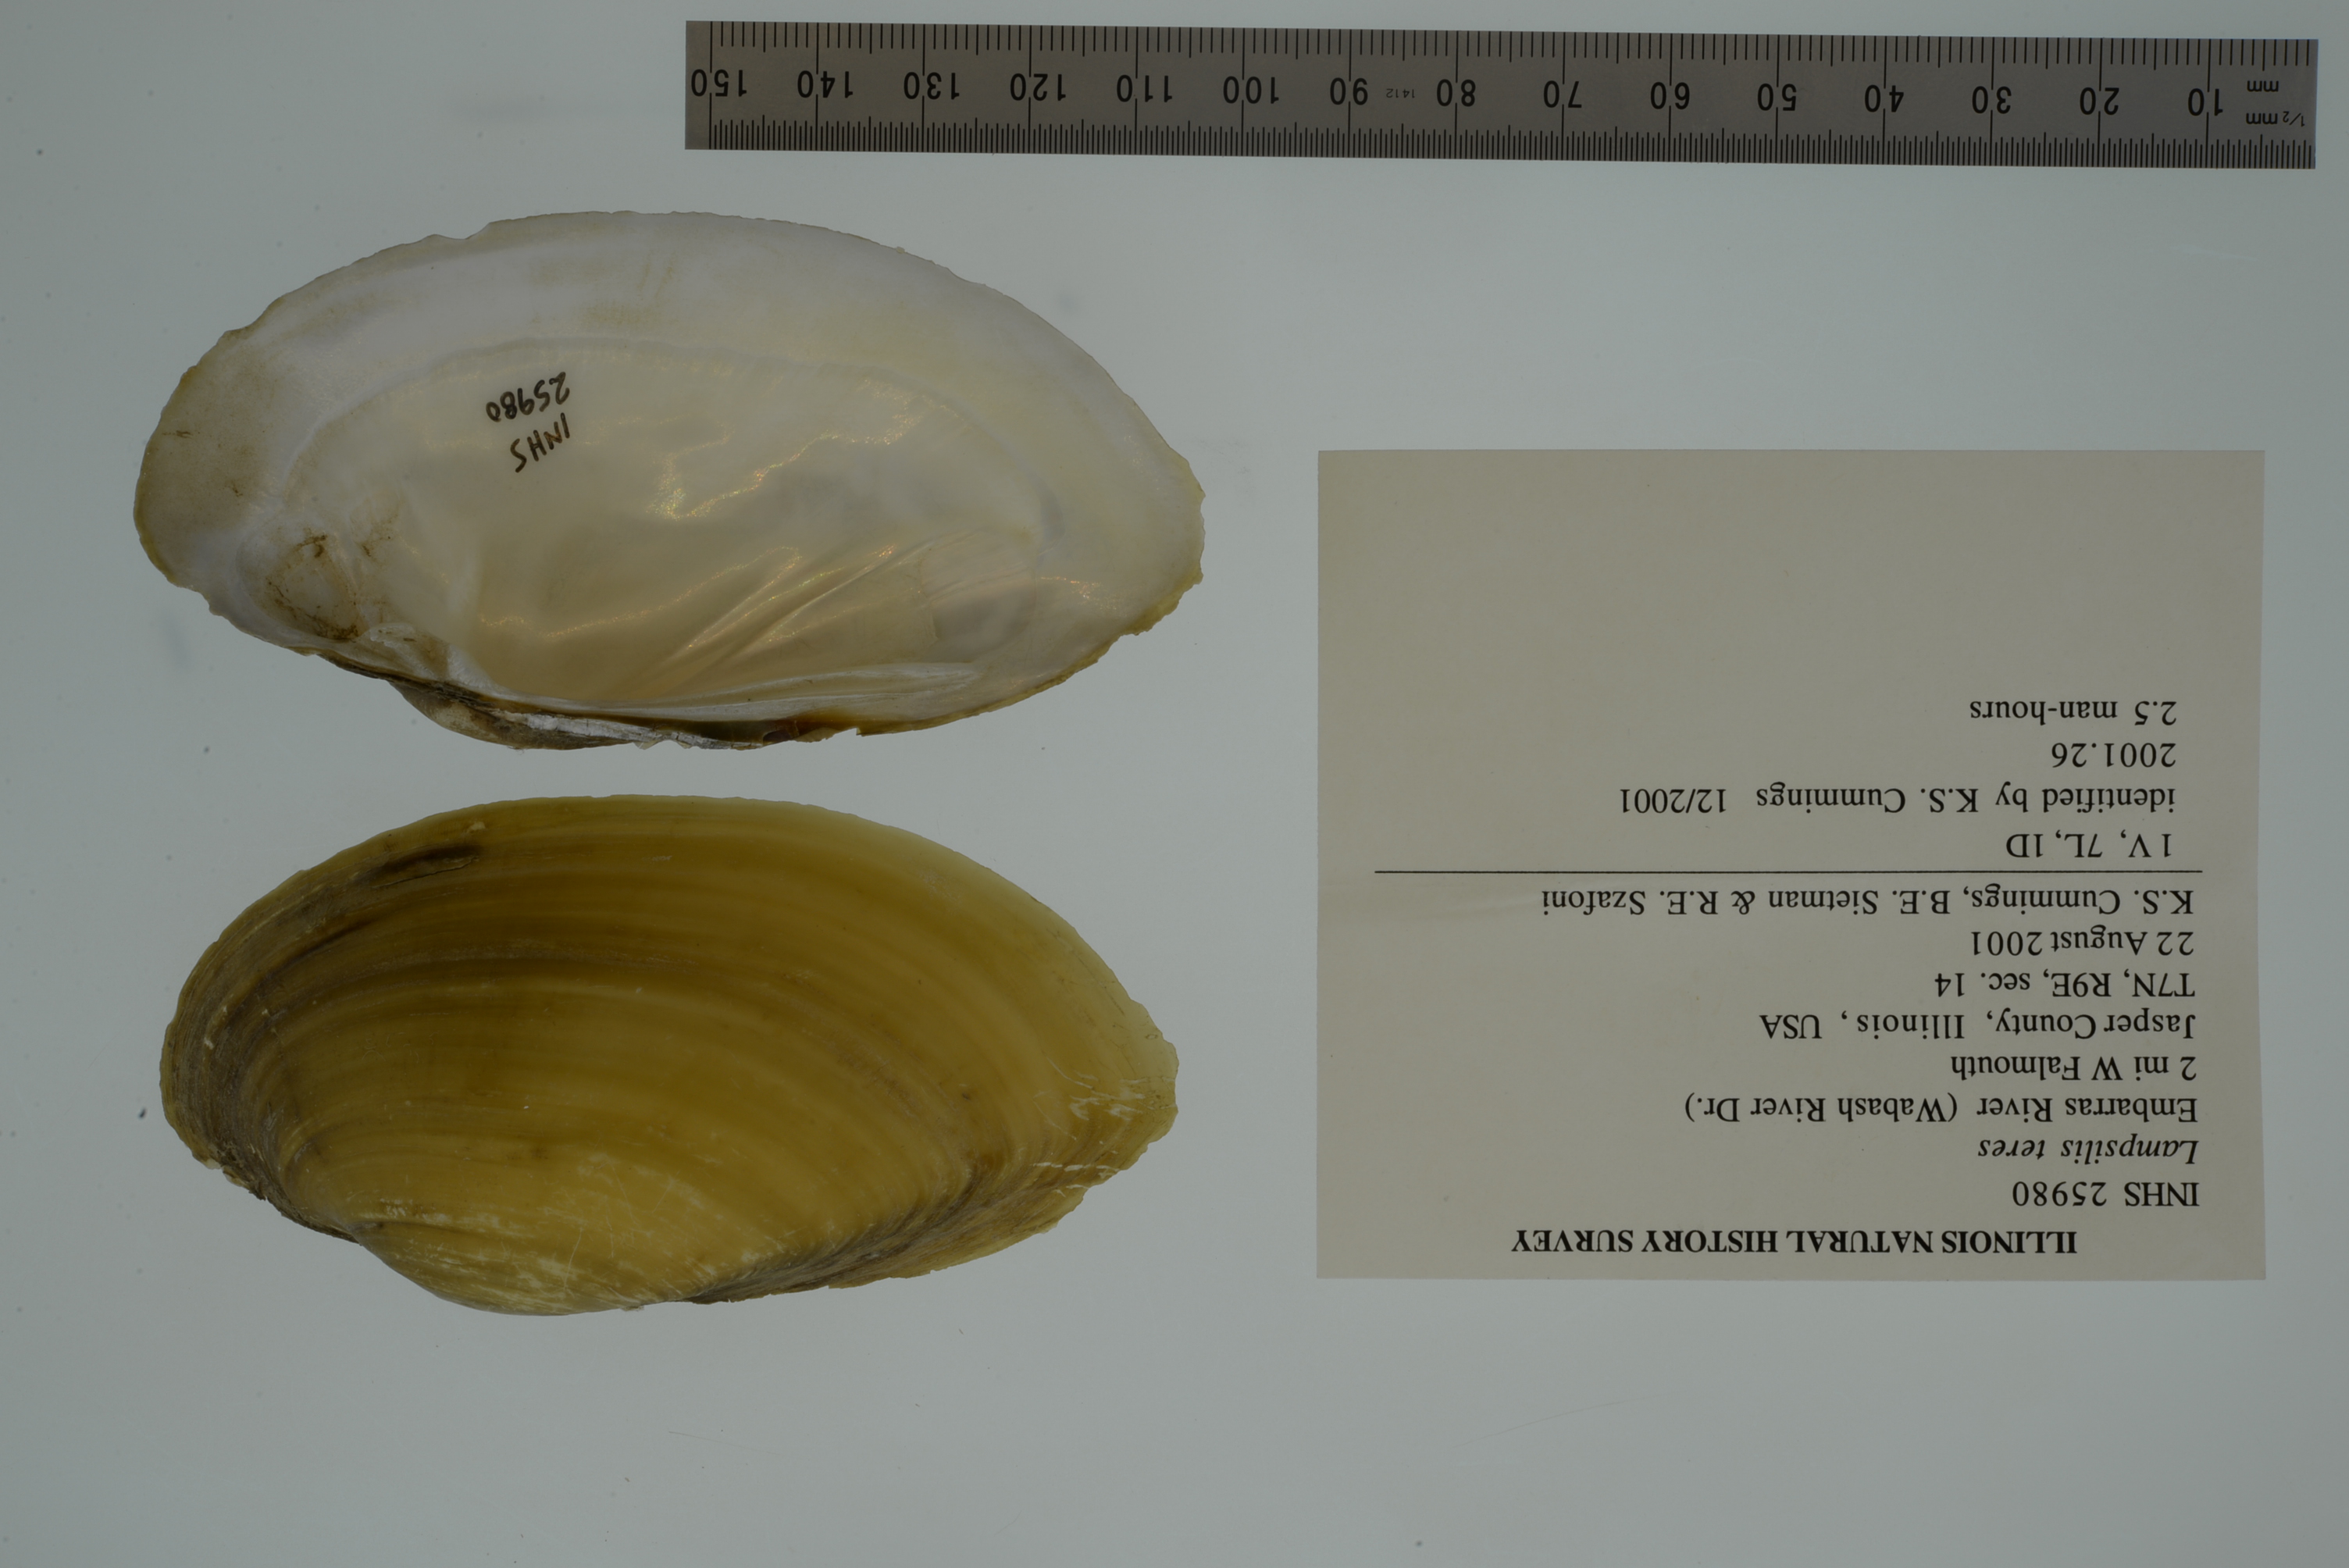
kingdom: Animalia
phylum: Mollusca
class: Bivalvia
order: Unionida
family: Unionidae
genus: Lampsilis
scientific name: Lampsilis sietmani
